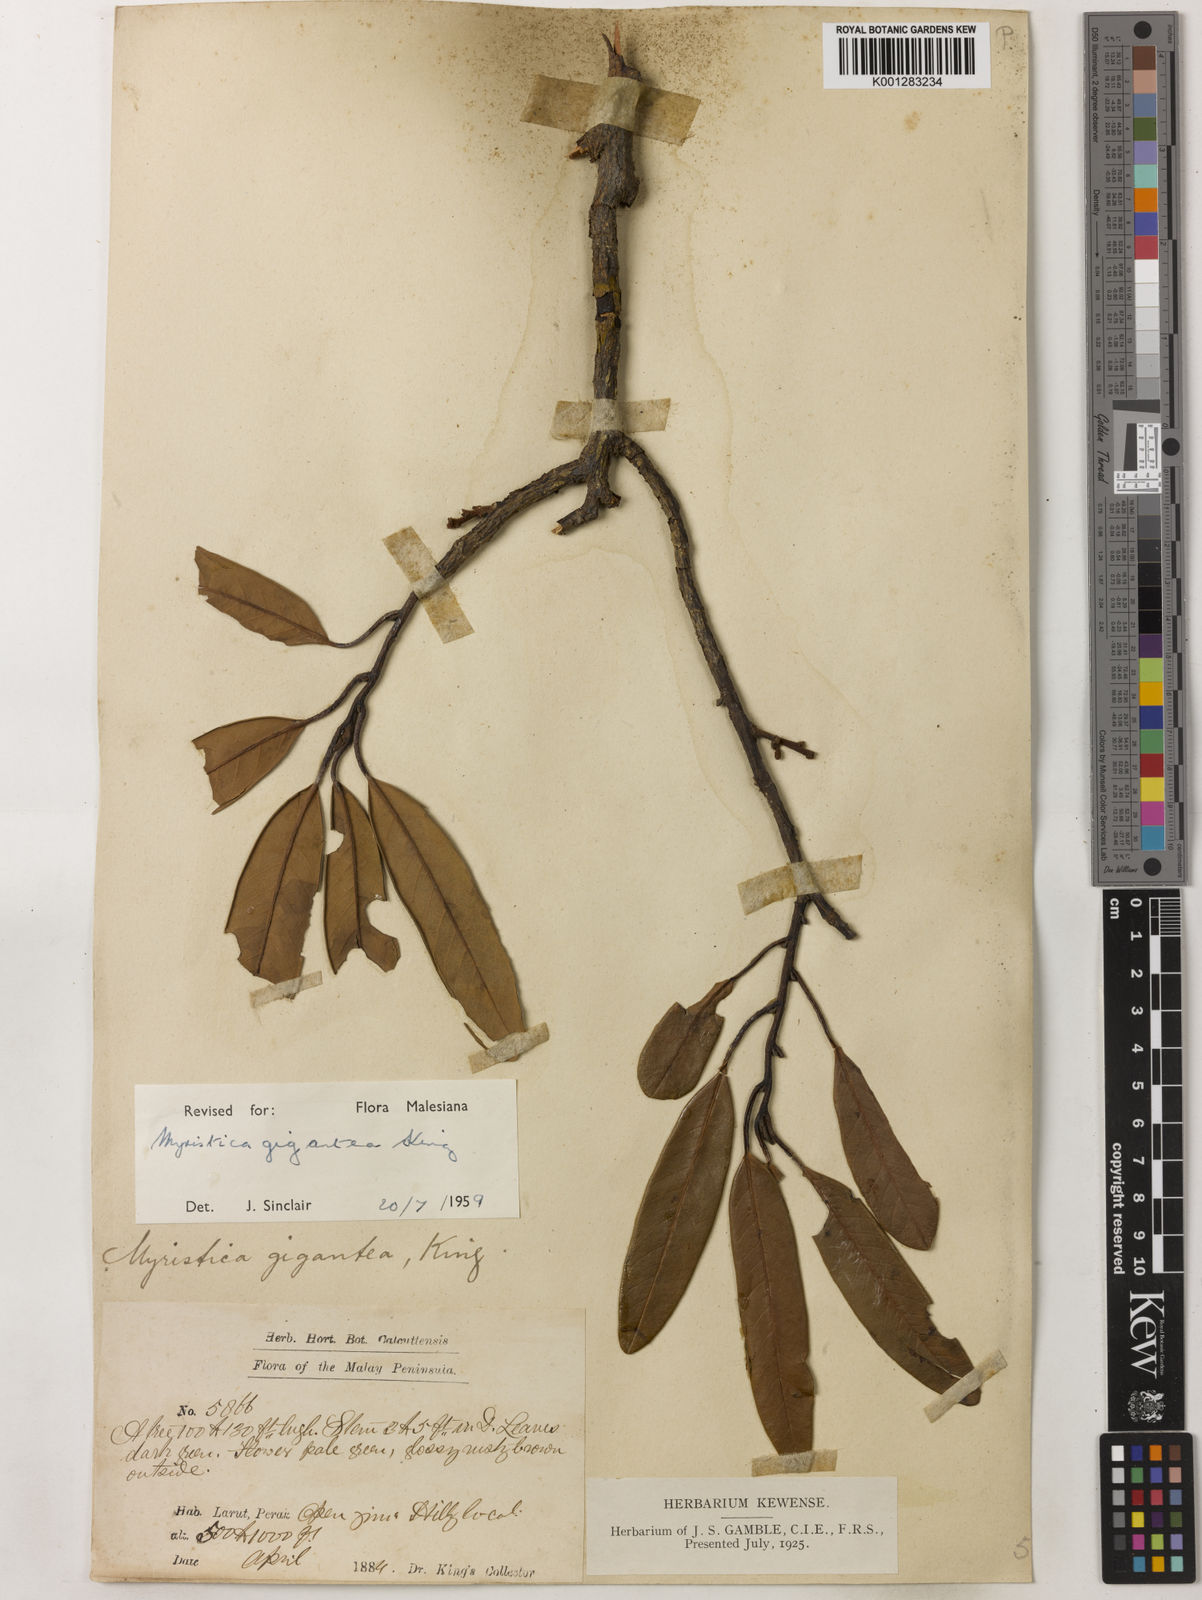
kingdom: Plantae
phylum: Tracheophyta
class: Magnoliopsida
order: Magnoliales
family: Myristicaceae
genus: Myristica
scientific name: Myristica gigantea
